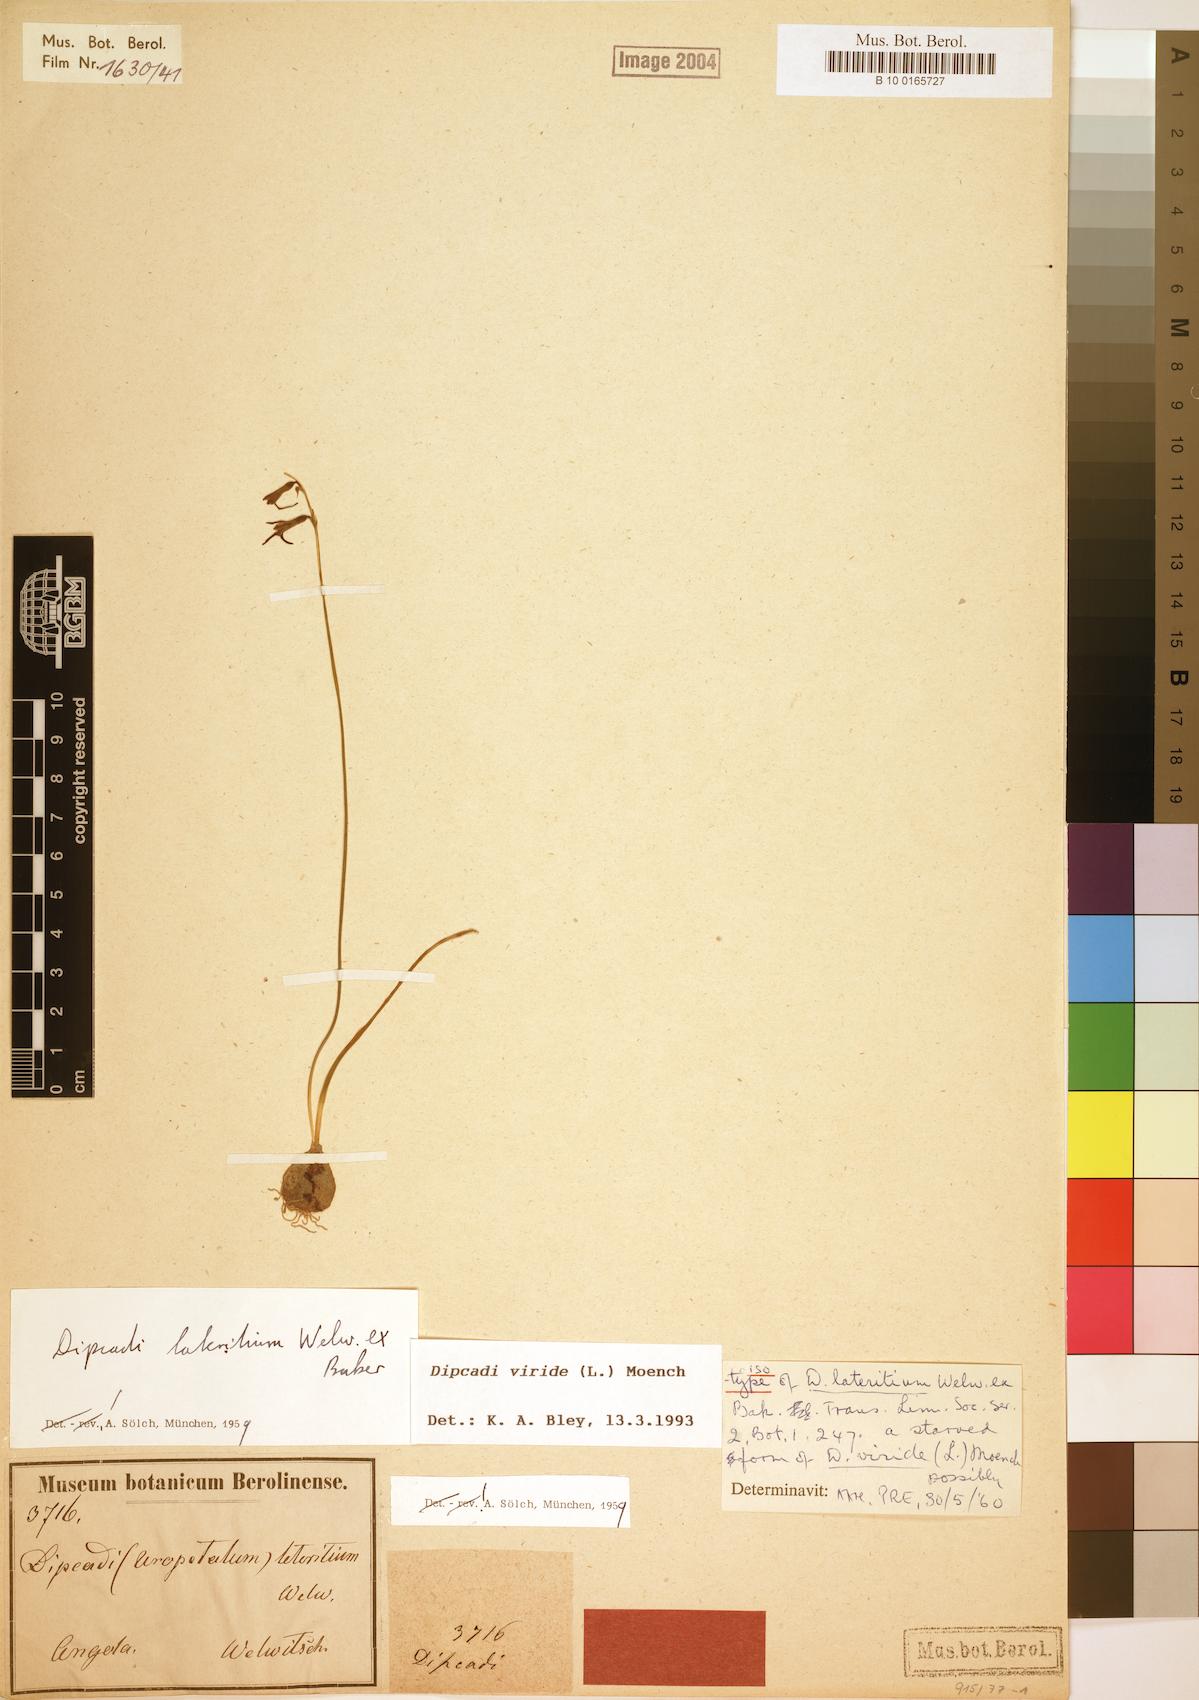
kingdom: Plantae
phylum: Tracheophyta
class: Liliopsida
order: Asparagales
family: Asparagaceae
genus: Dipcadi
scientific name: Dipcadi viride
